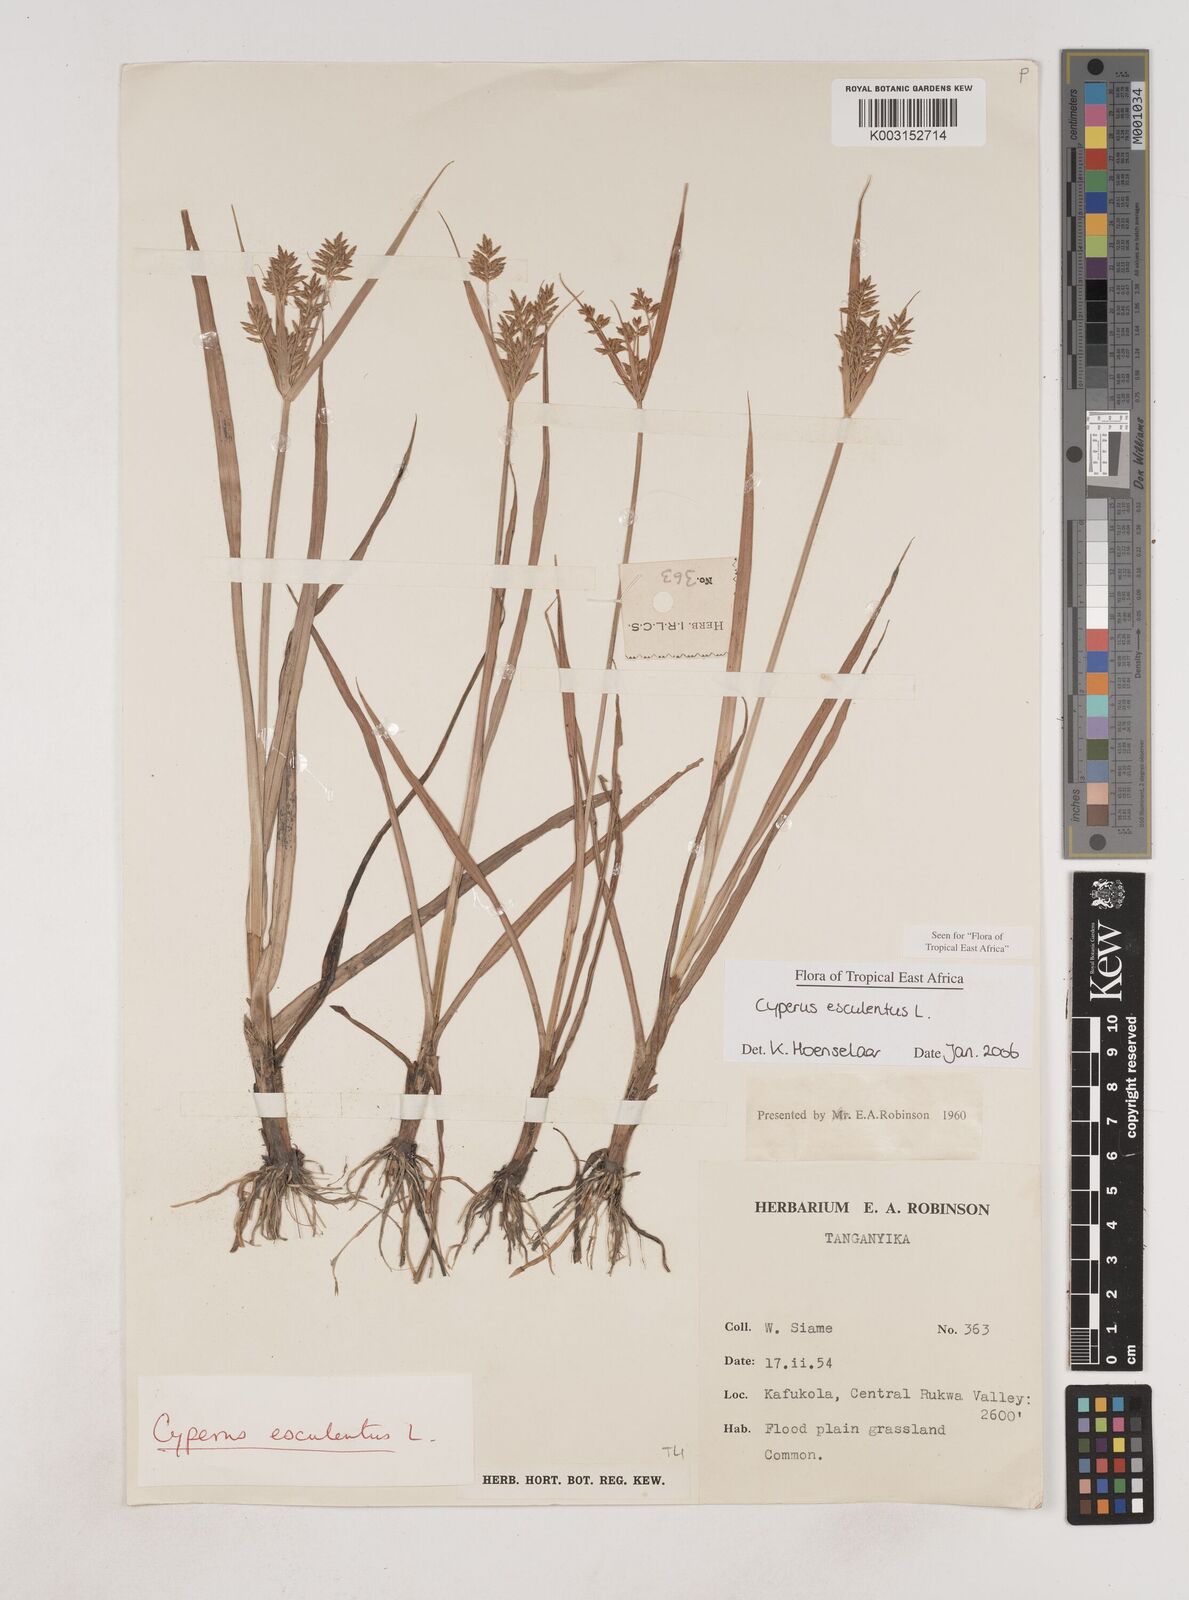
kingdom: Plantae
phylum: Tracheophyta
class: Liliopsida
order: Poales
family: Cyperaceae
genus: Cyperus
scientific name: Cyperus esculentus
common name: Yellow nutsedge
